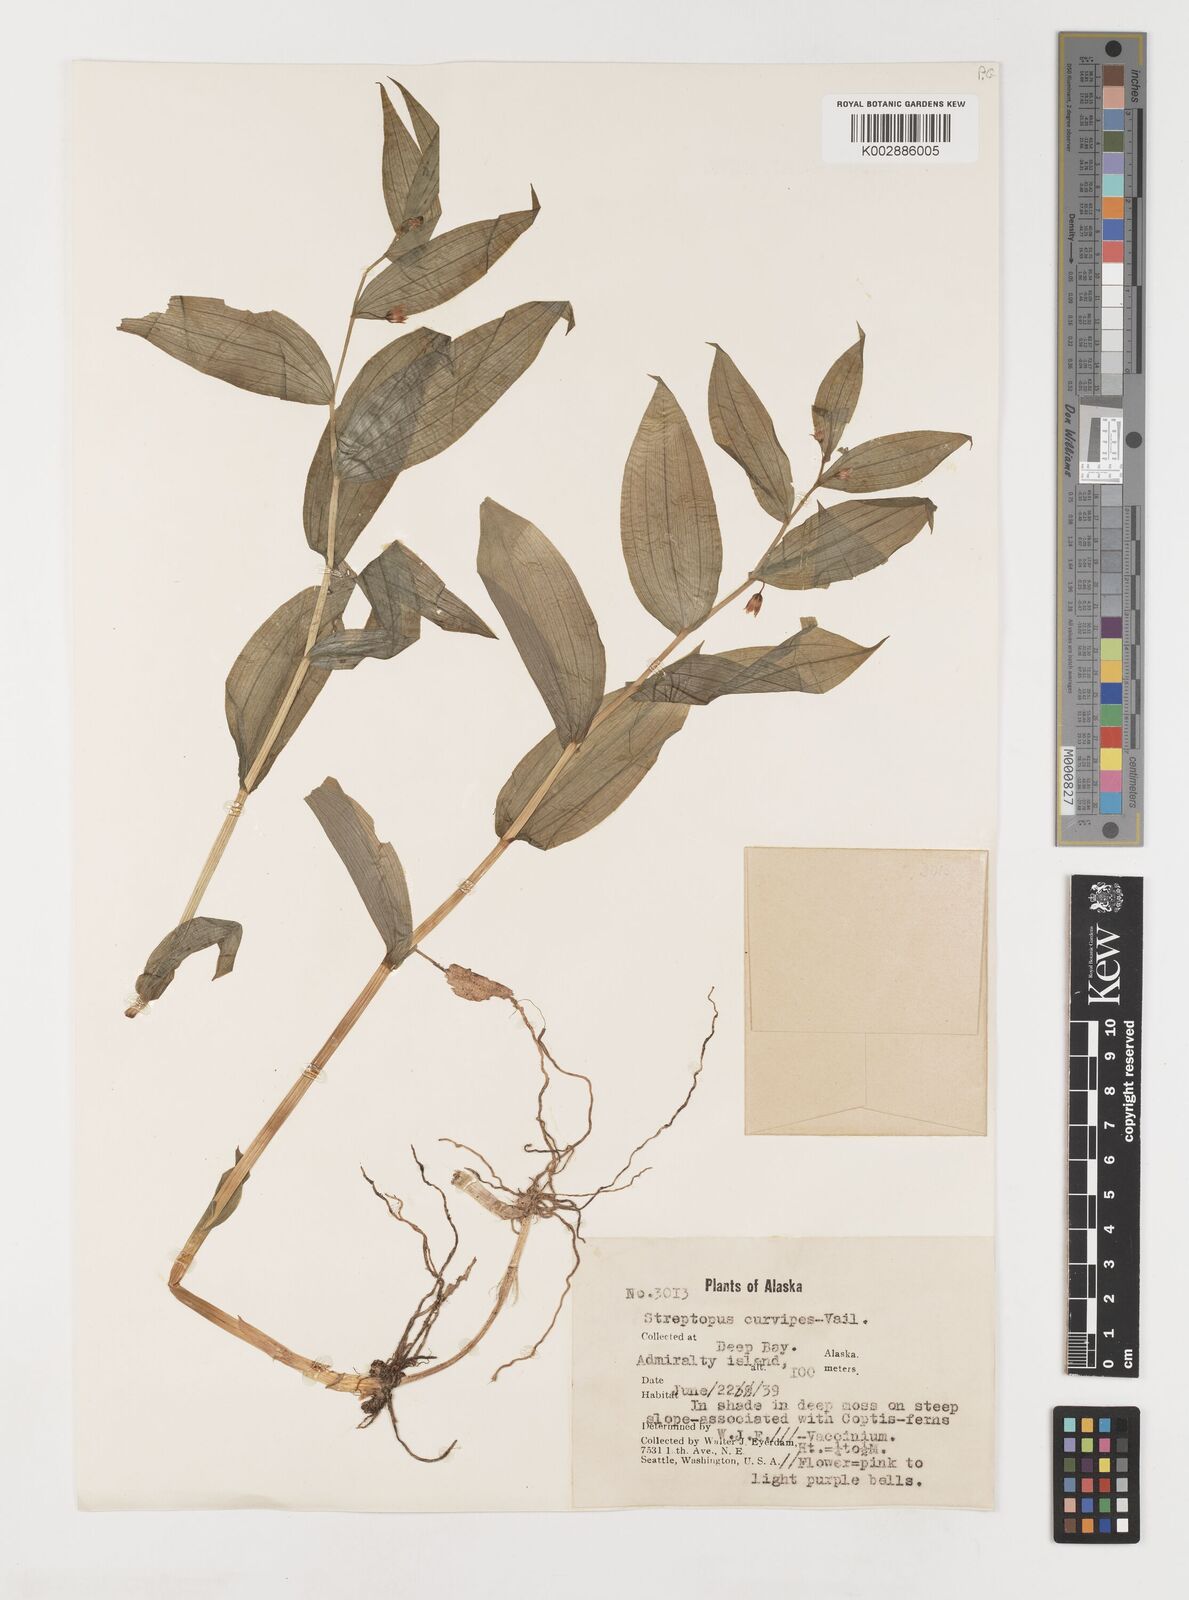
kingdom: Plantae
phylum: Tracheophyta
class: Liliopsida
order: Liliales
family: Liliaceae
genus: Streptopus
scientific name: Streptopus lanceolatus
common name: Rose mandarin
